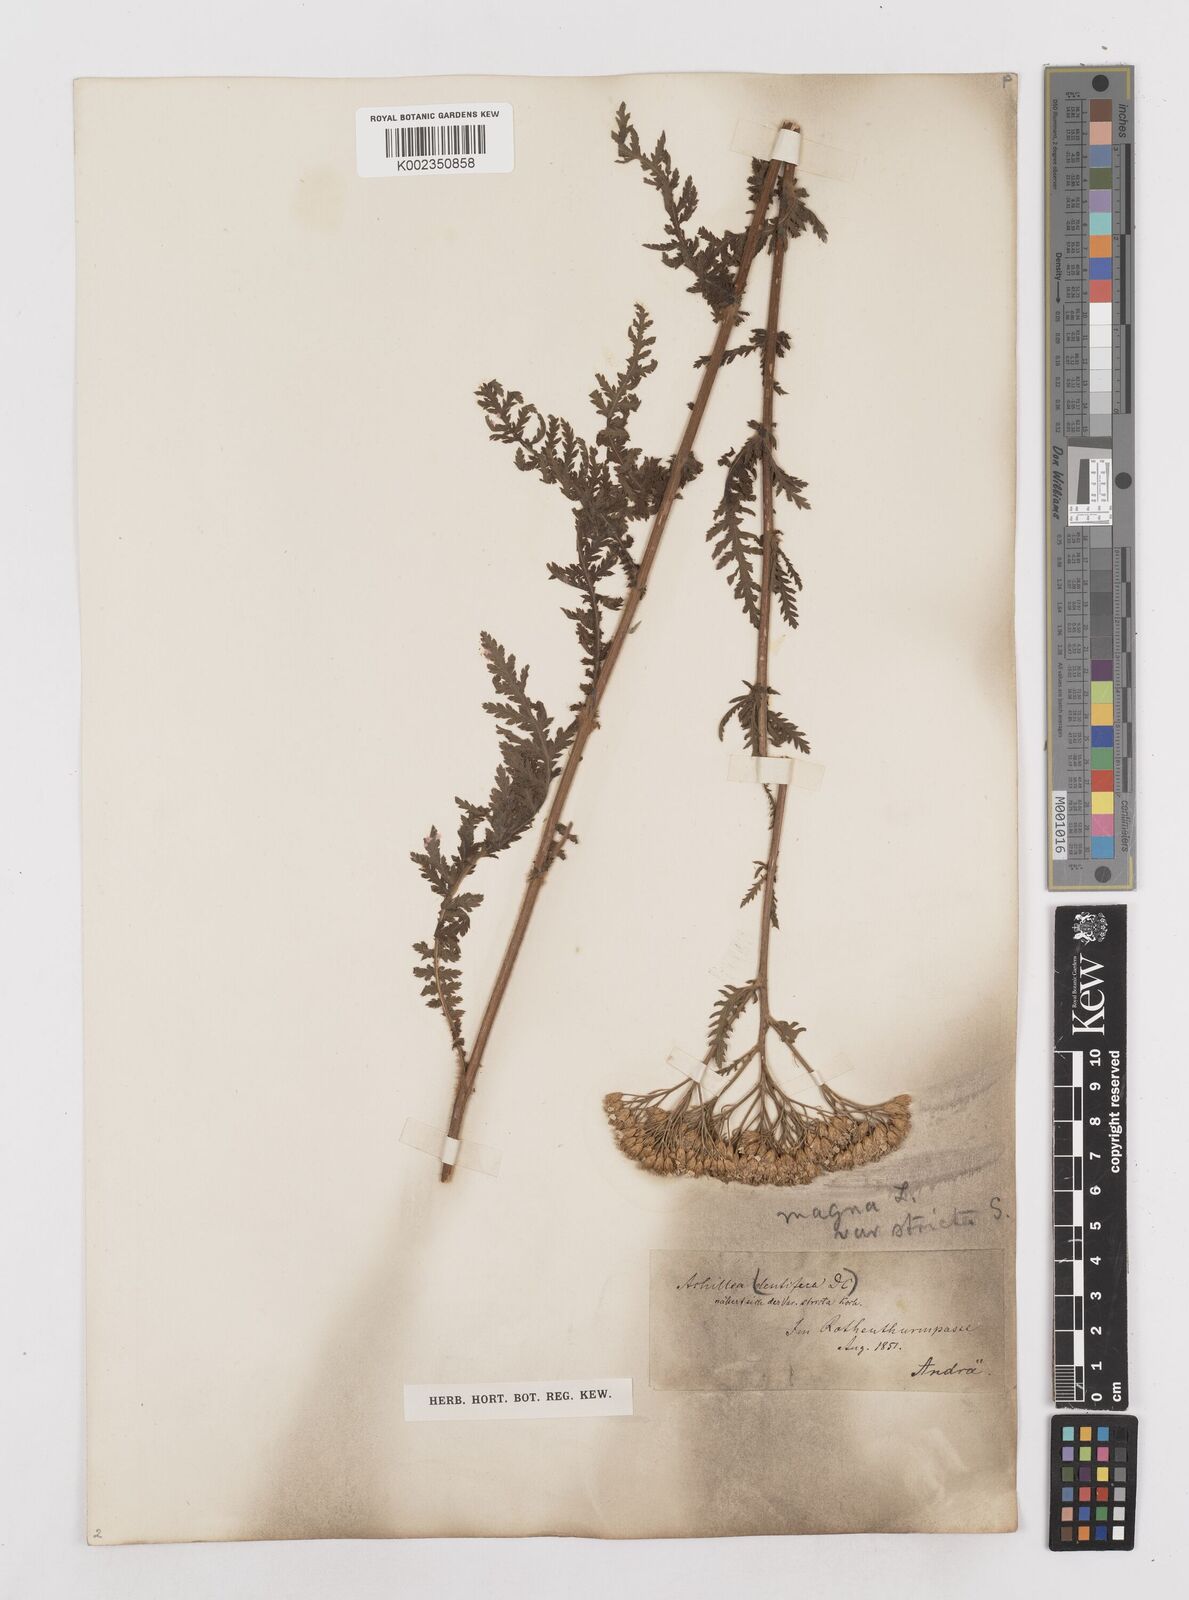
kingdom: Plantae
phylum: Tracheophyta
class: Magnoliopsida
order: Asterales
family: Asteraceae
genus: Achillea
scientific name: Achillea distans
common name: Tall yarrow
